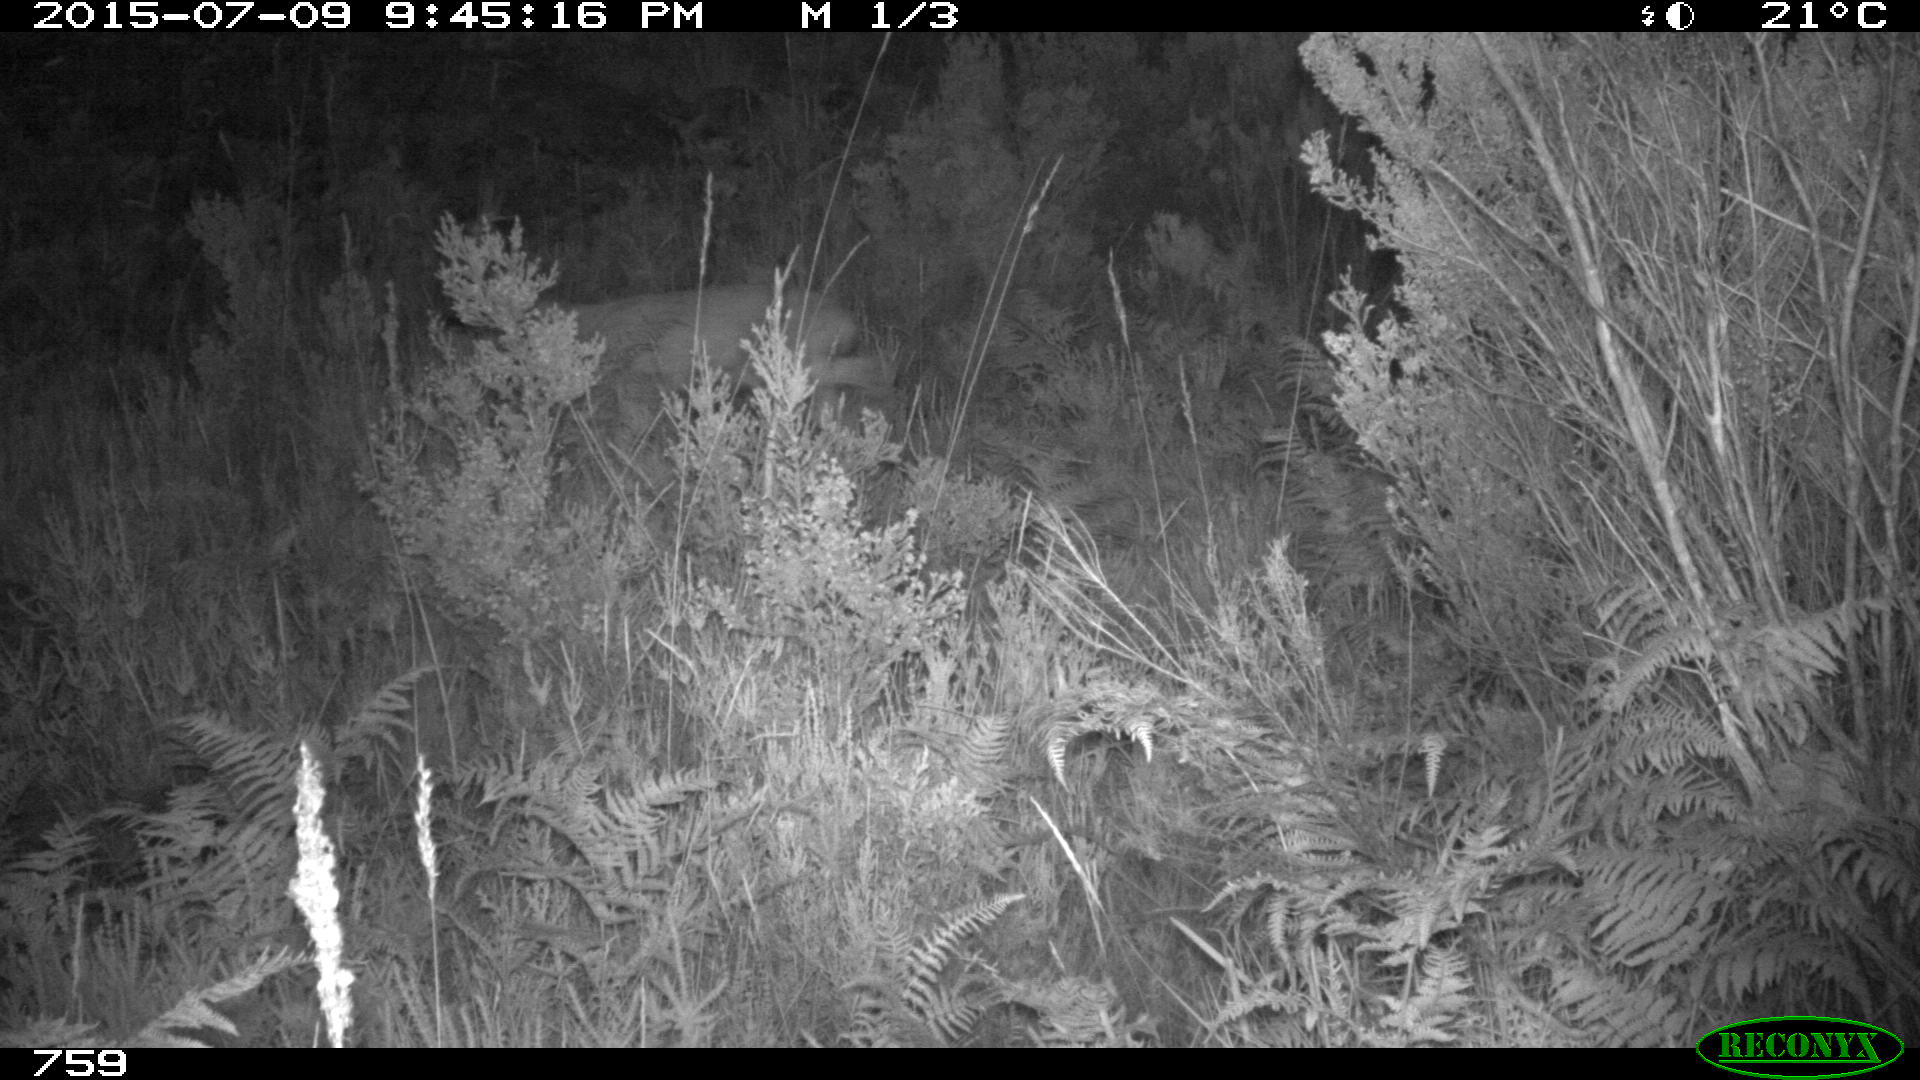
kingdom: Animalia
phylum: Chordata
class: Mammalia
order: Artiodactyla
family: Cervidae
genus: Capreolus
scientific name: Capreolus capreolus
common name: Western roe deer
